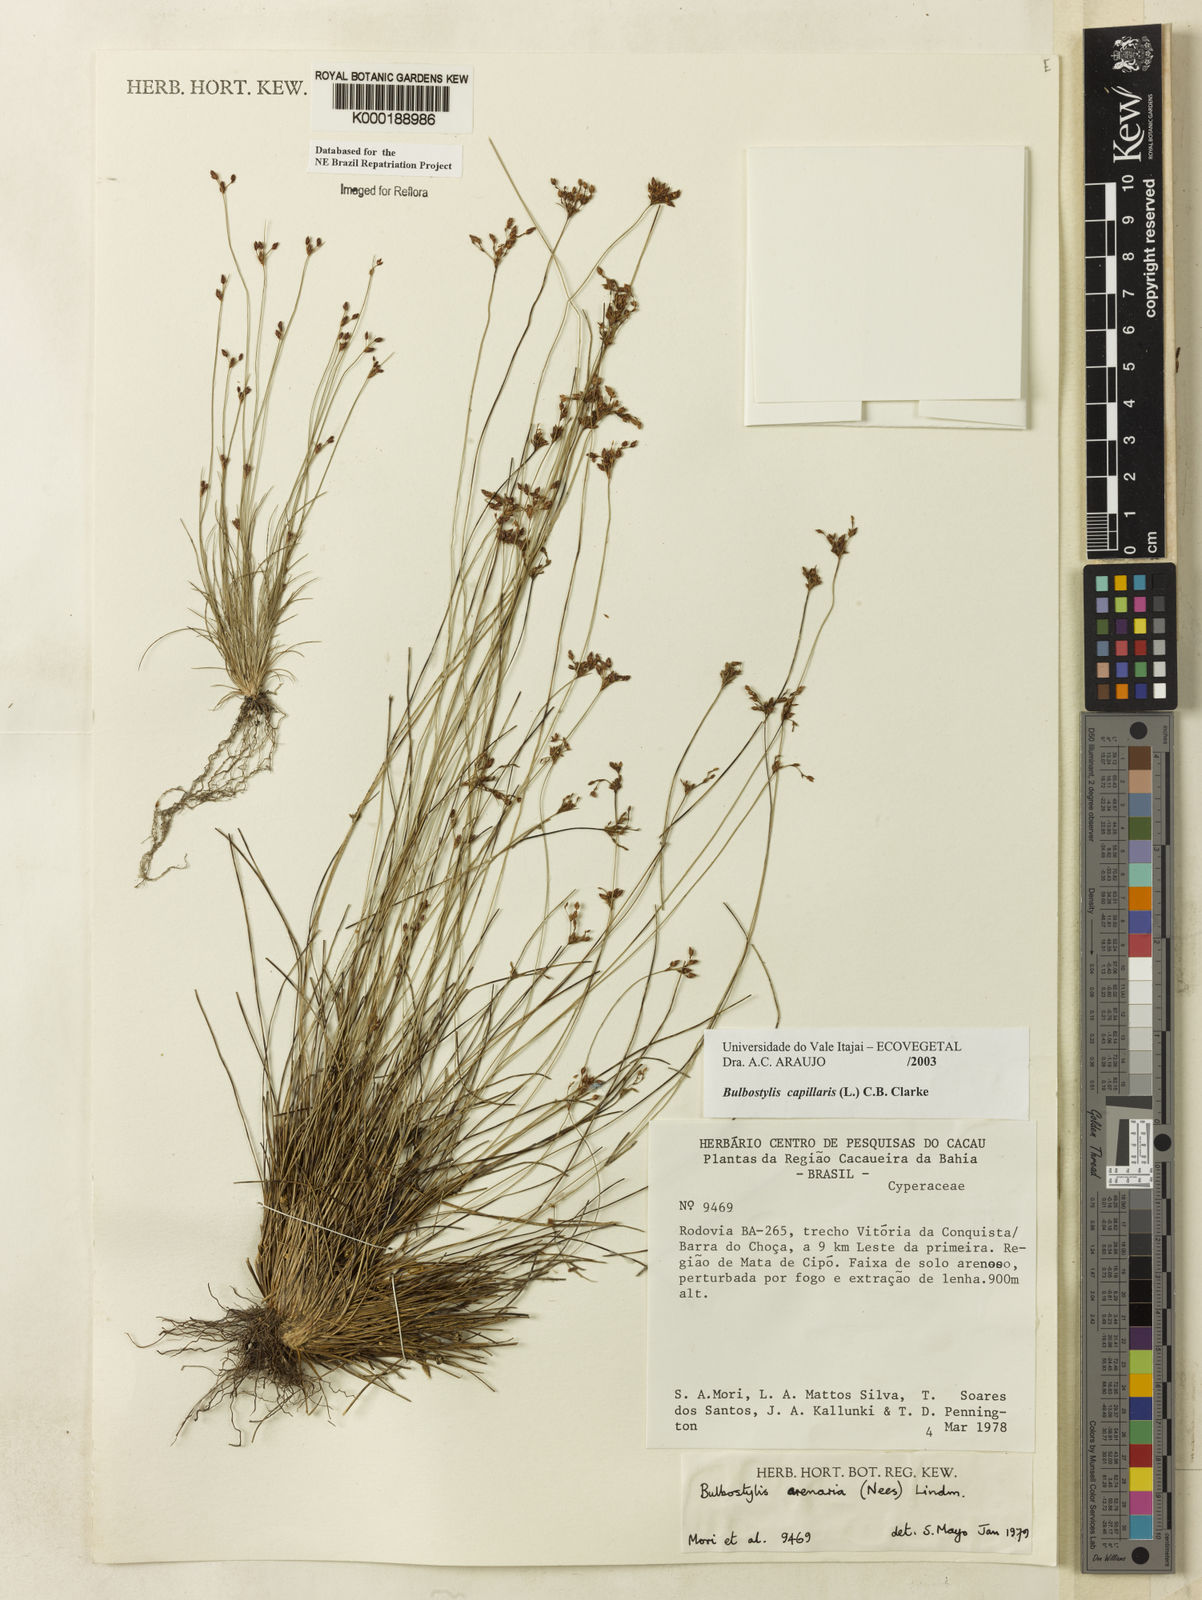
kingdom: Plantae
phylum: Tracheophyta
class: Liliopsida
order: Poales
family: Cyperaceae
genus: Bulbostylis
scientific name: Bulbostylis capillaris
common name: Densetuft hairsedge
